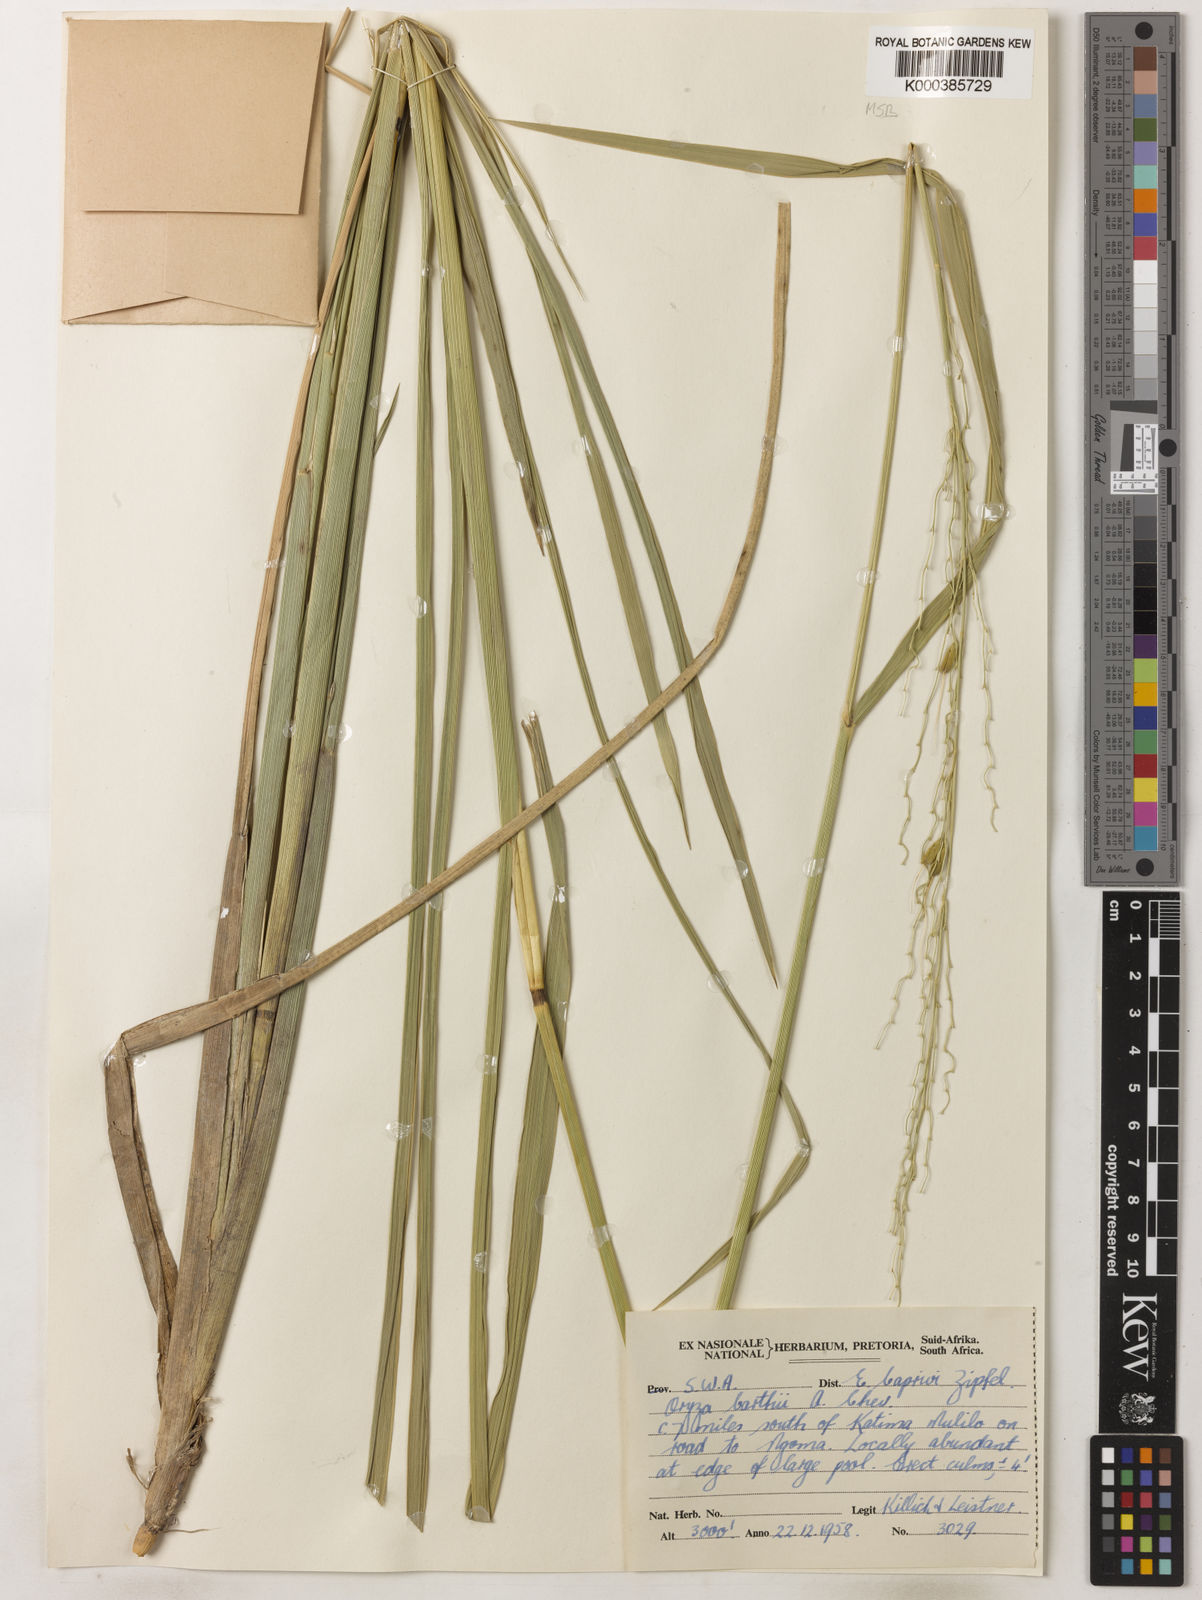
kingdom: Plantae
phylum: Tracheophyta
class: Liliopsida
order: Poales
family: Poaceae
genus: Oryza
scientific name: Oryza longistaminata
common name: Red rice
